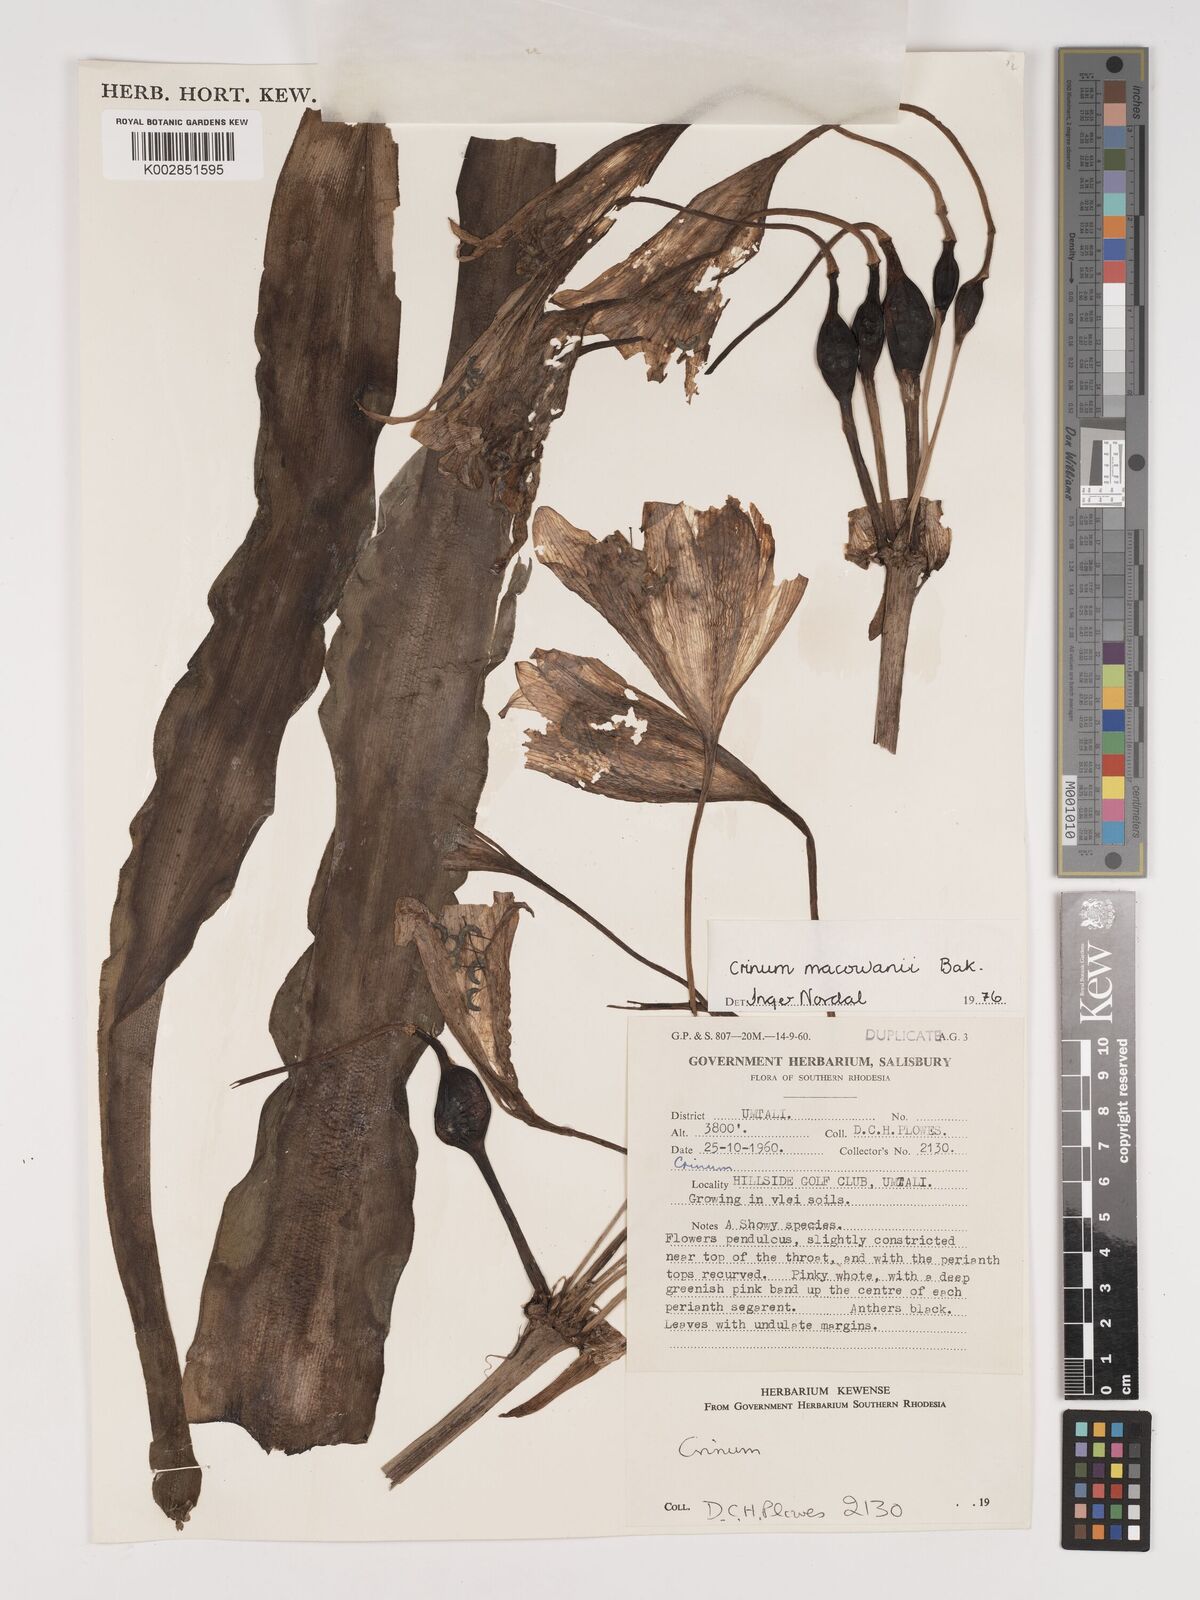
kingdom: Plantae
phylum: Tracheophyta
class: Liliopsida
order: Asparagales
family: Amaryllidaceae
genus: Crinum
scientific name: Crinum macowanii
